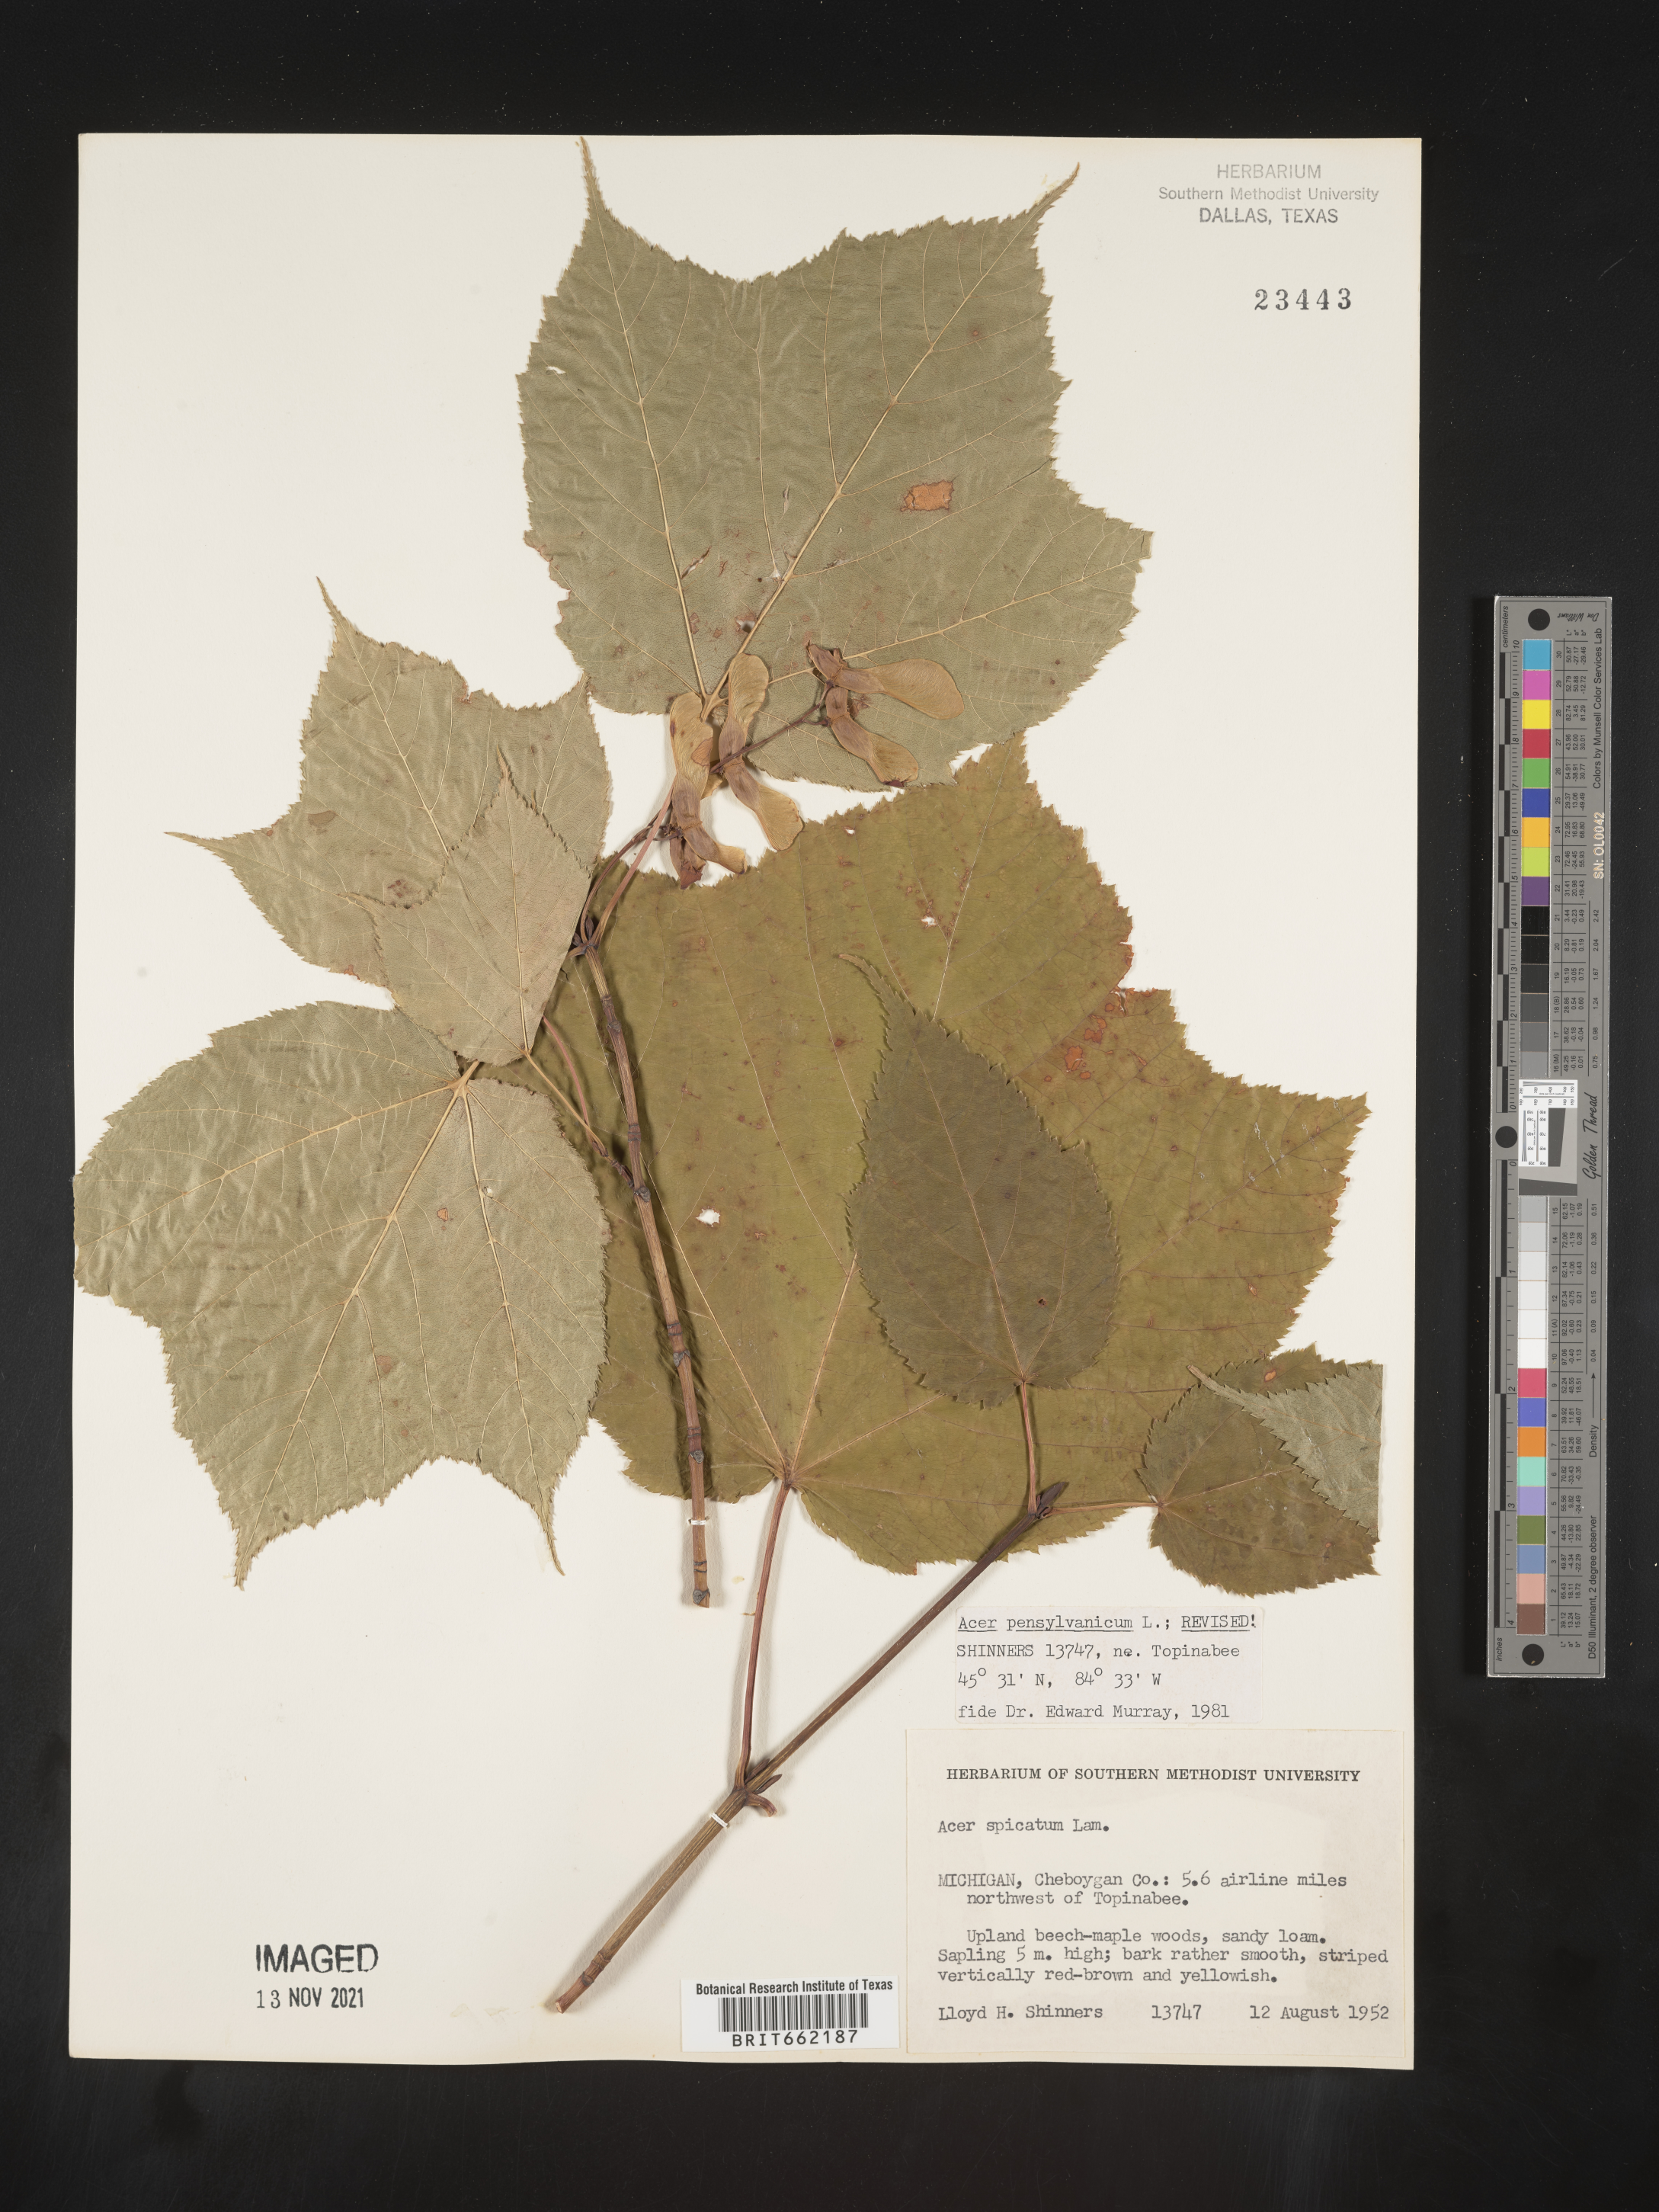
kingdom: Plantae
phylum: Tracheophyta
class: Magnoliopsida
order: Sapindales
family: Sapindaceae
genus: Acer
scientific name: Acer spicatum
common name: Mountain maple
